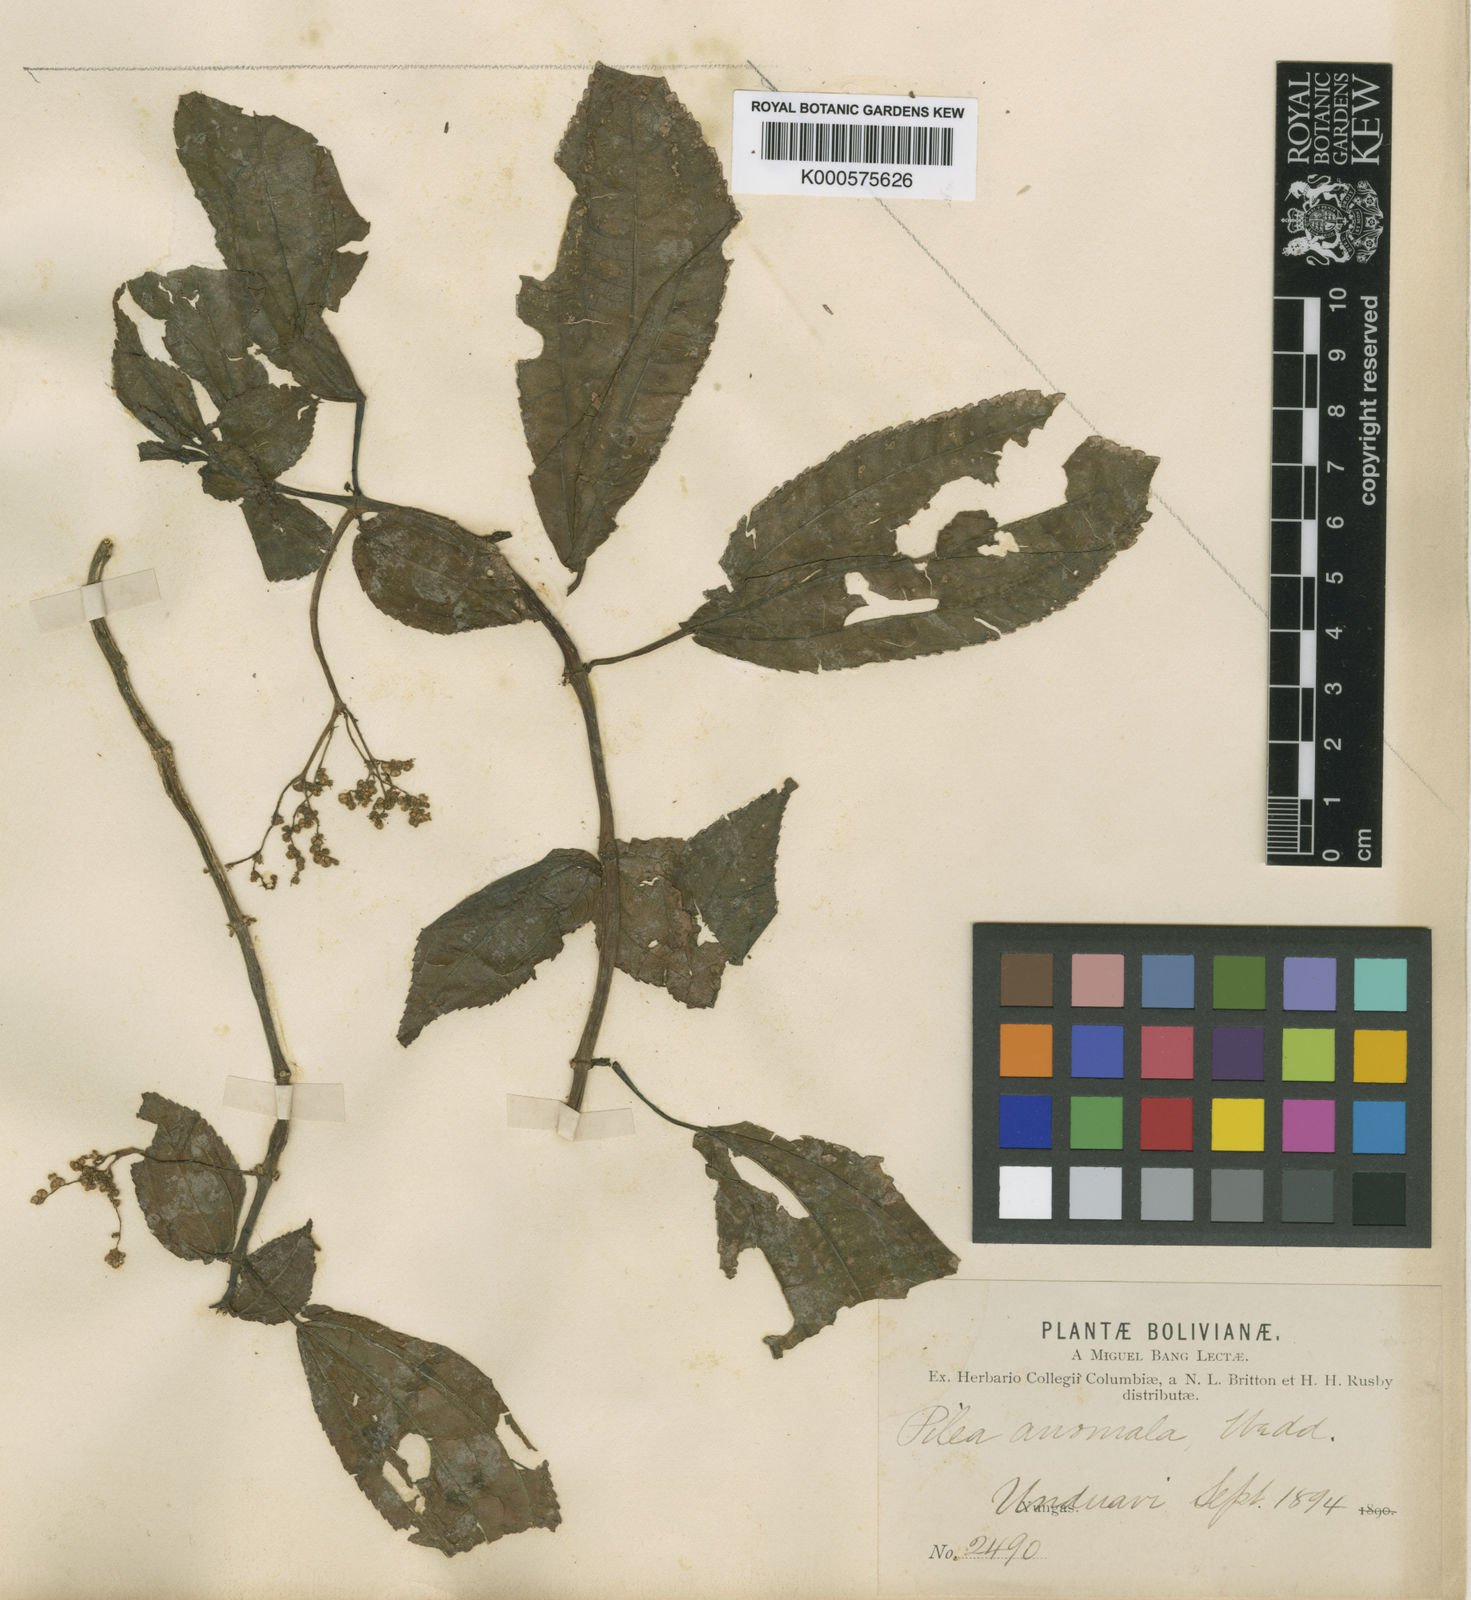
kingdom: Plantae
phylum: Tracheophyta
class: Magnoliopsida
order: Rosales
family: Urticaceae
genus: Pilea
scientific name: Pilea multiflora
